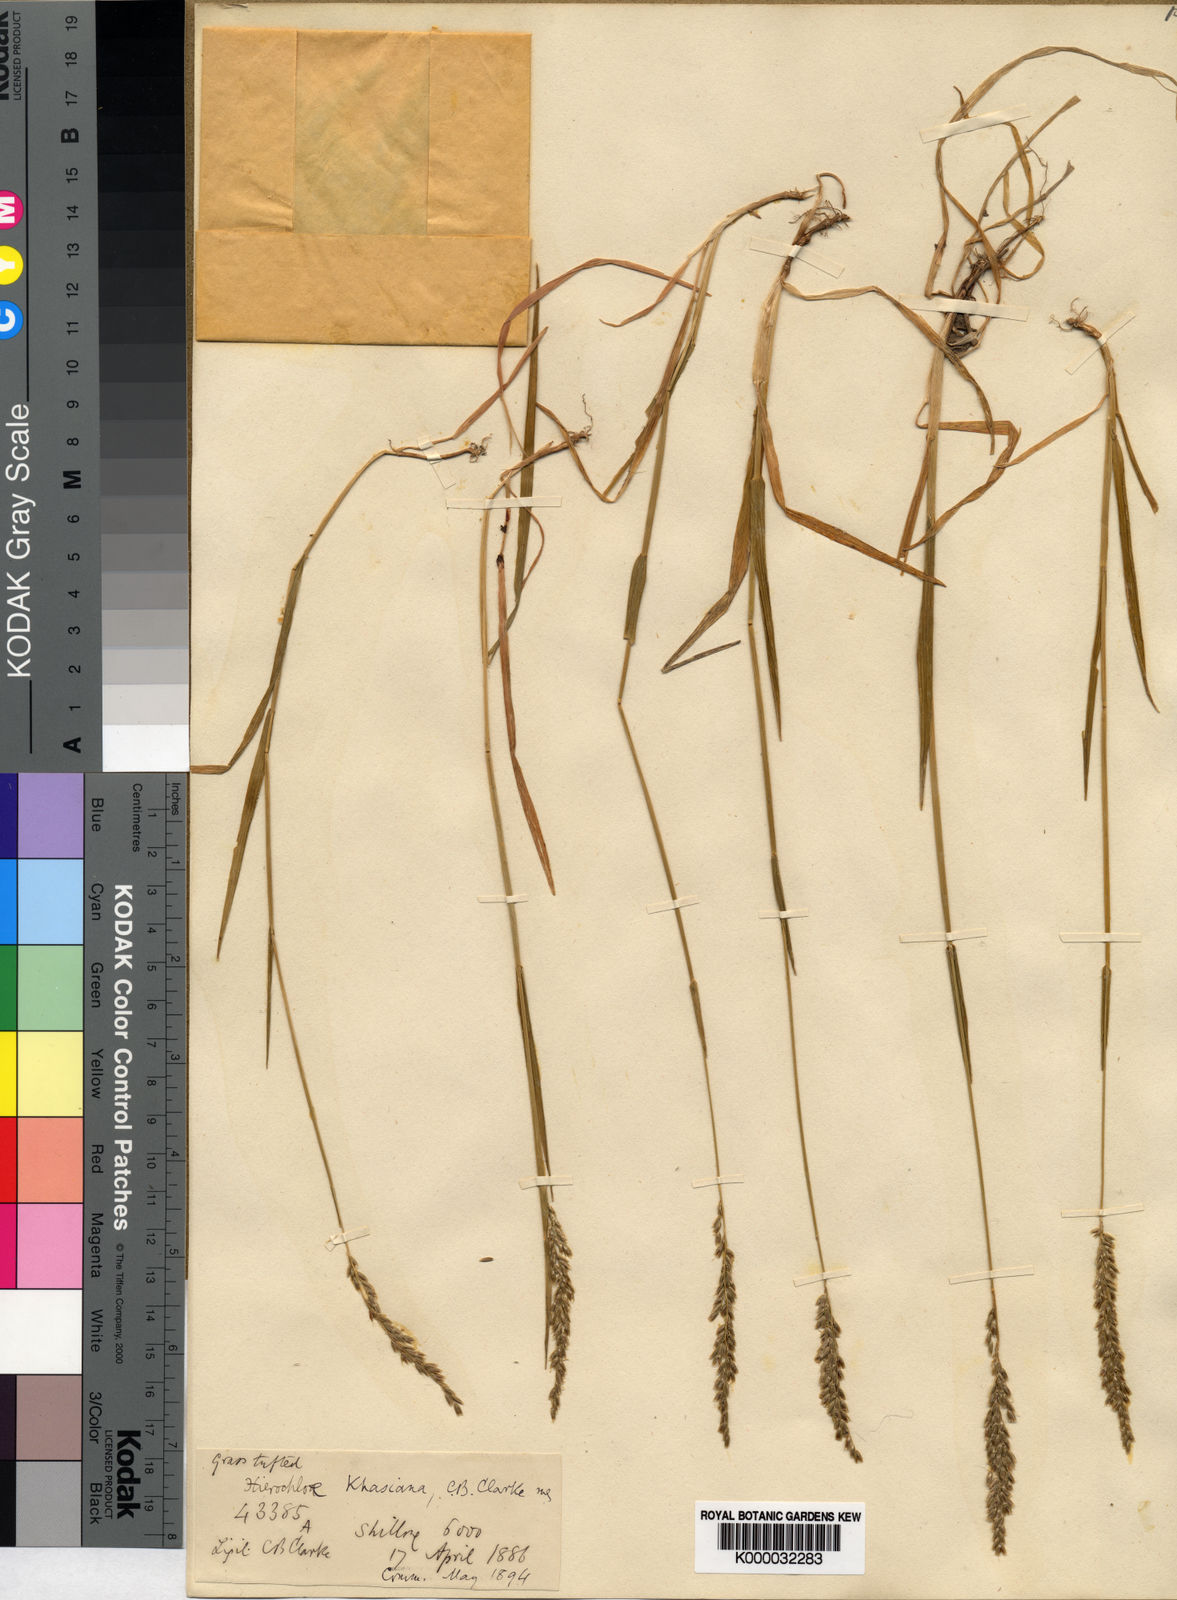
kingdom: Plantae
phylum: Tracheophyta
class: Liliopsida
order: Poales
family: Poaceae
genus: Hierochloe
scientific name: Hierochloe
